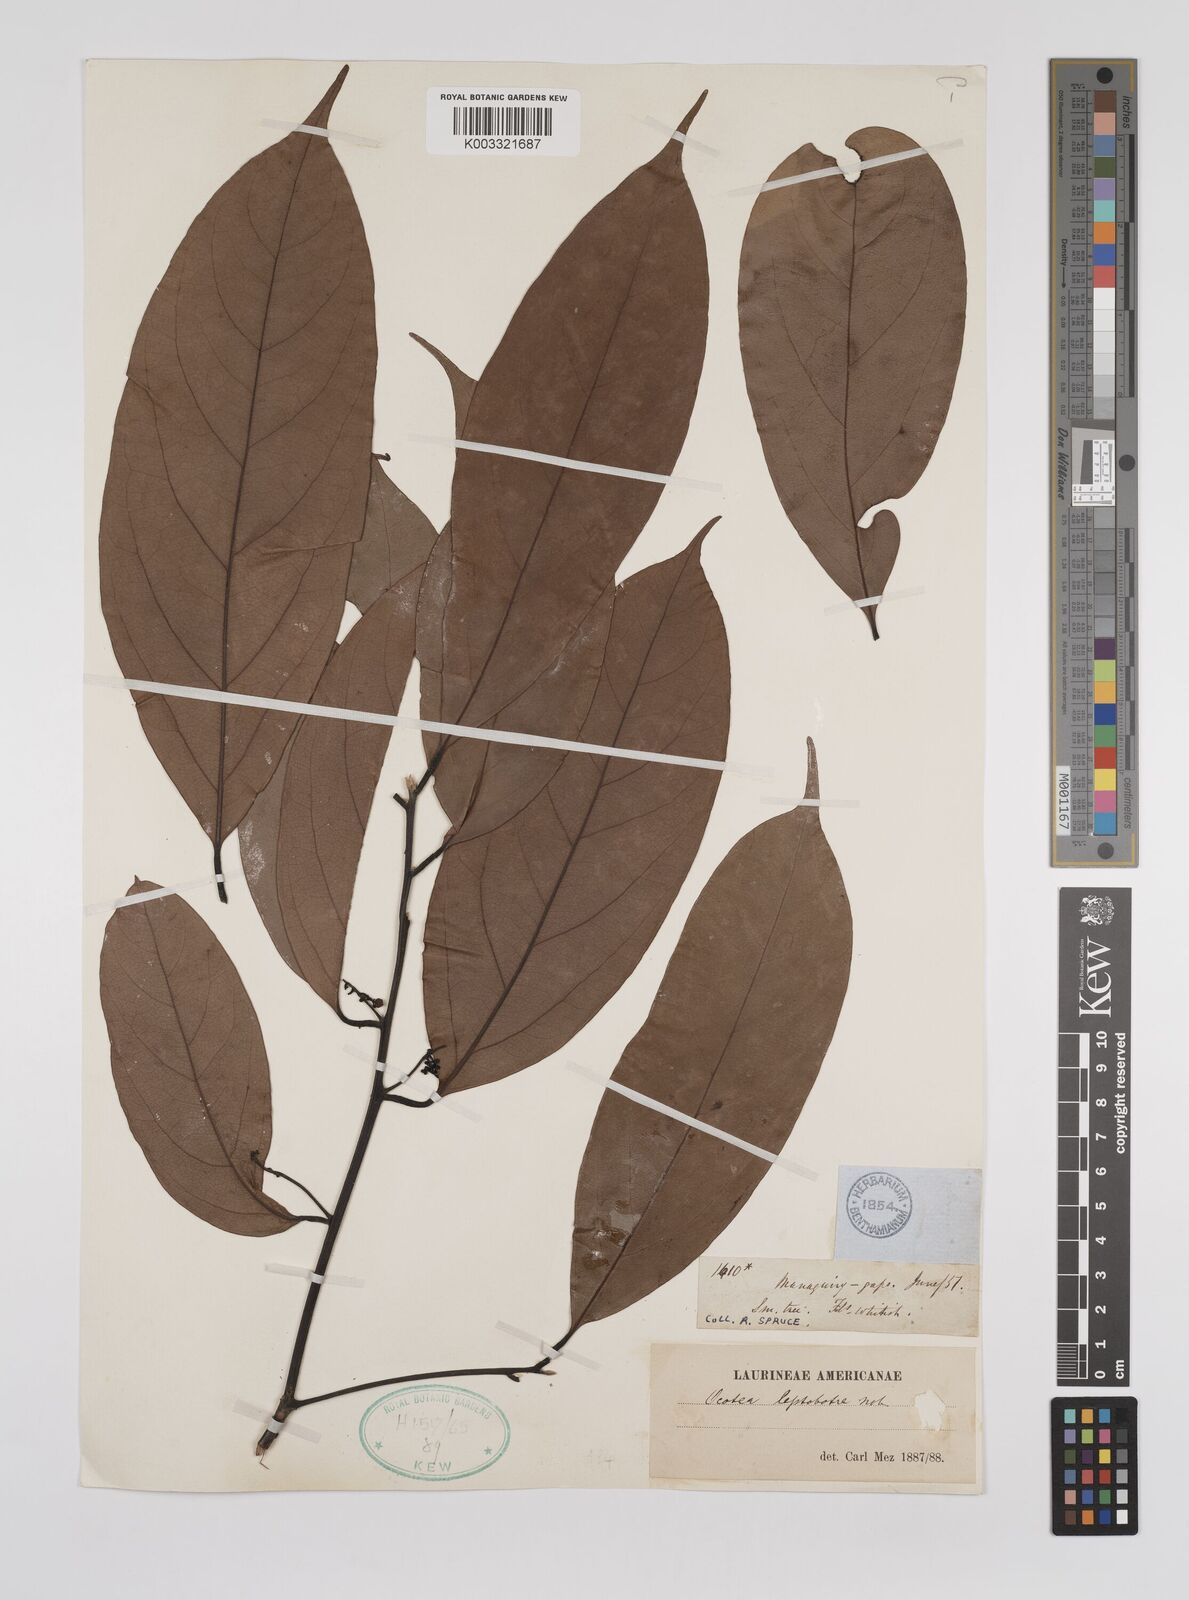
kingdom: Plantae
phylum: Tracheophyta
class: Magnoliopsida
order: Laurales
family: Lauraceae
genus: Ocotea
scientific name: Ocotea leptobotra
